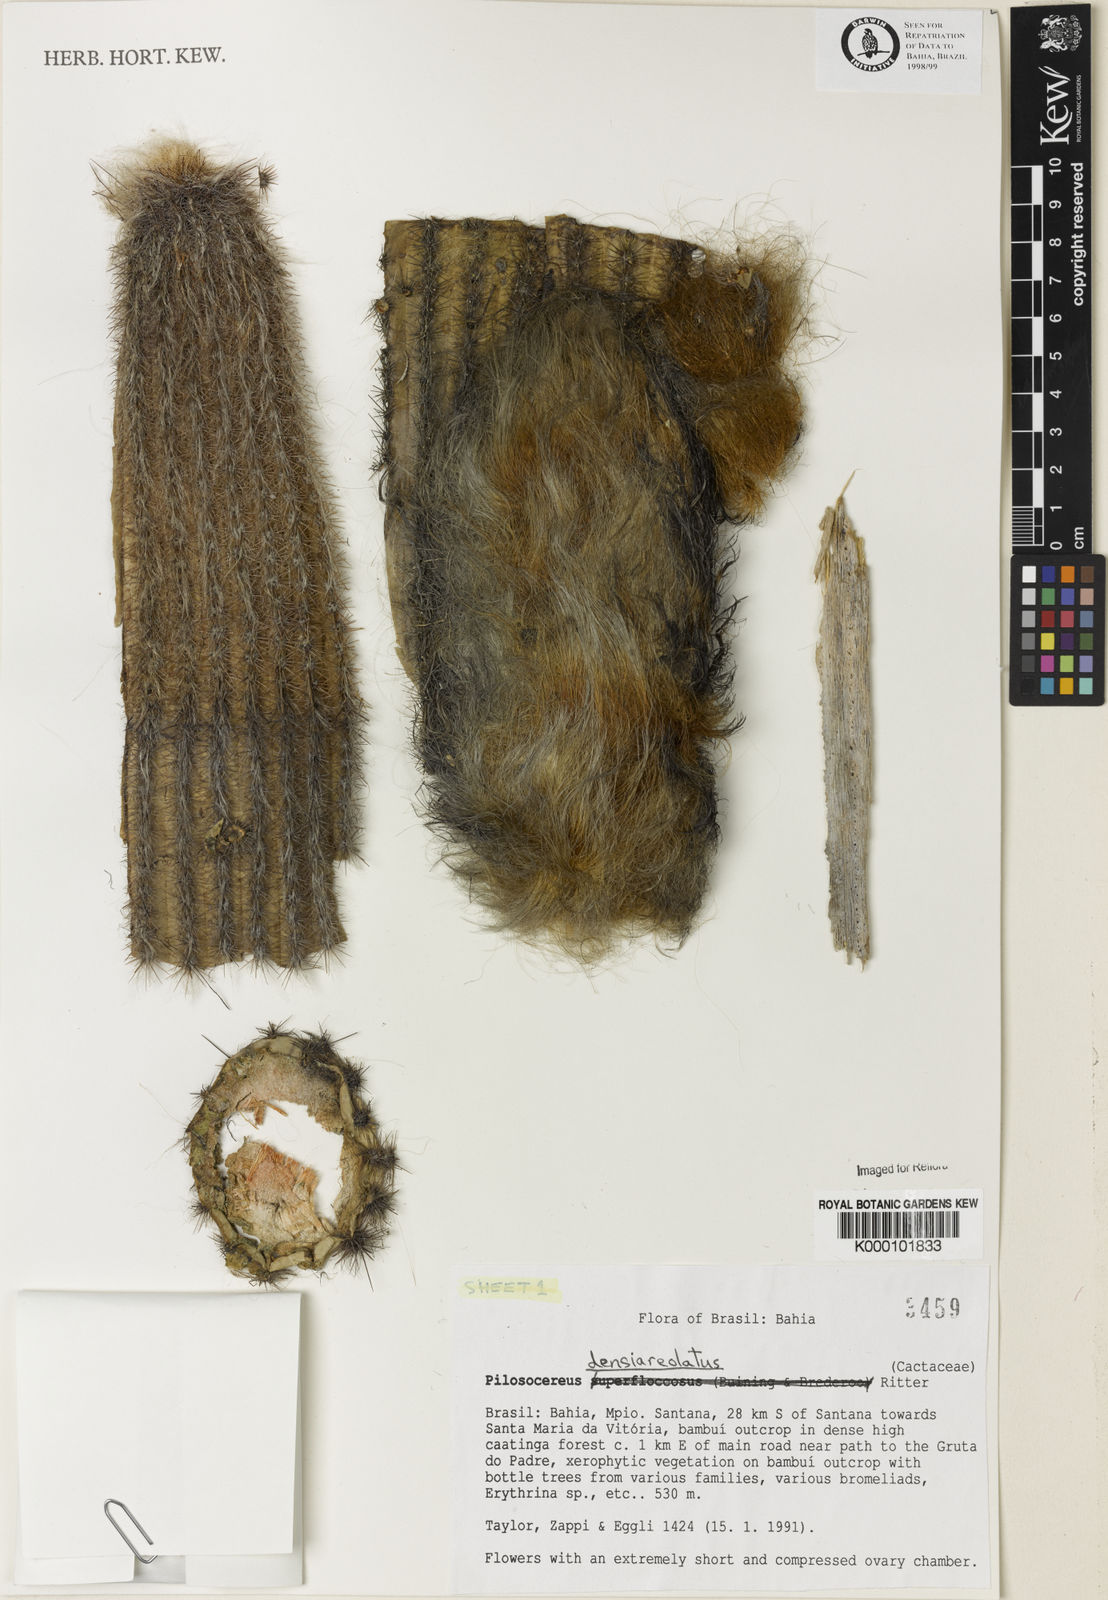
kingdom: Plantae
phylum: Tracheophyta
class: Magnoliopsida
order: Caryophyllales
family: Cactaceae
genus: Pilosocereus
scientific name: Pilosocereus densiareolatus
